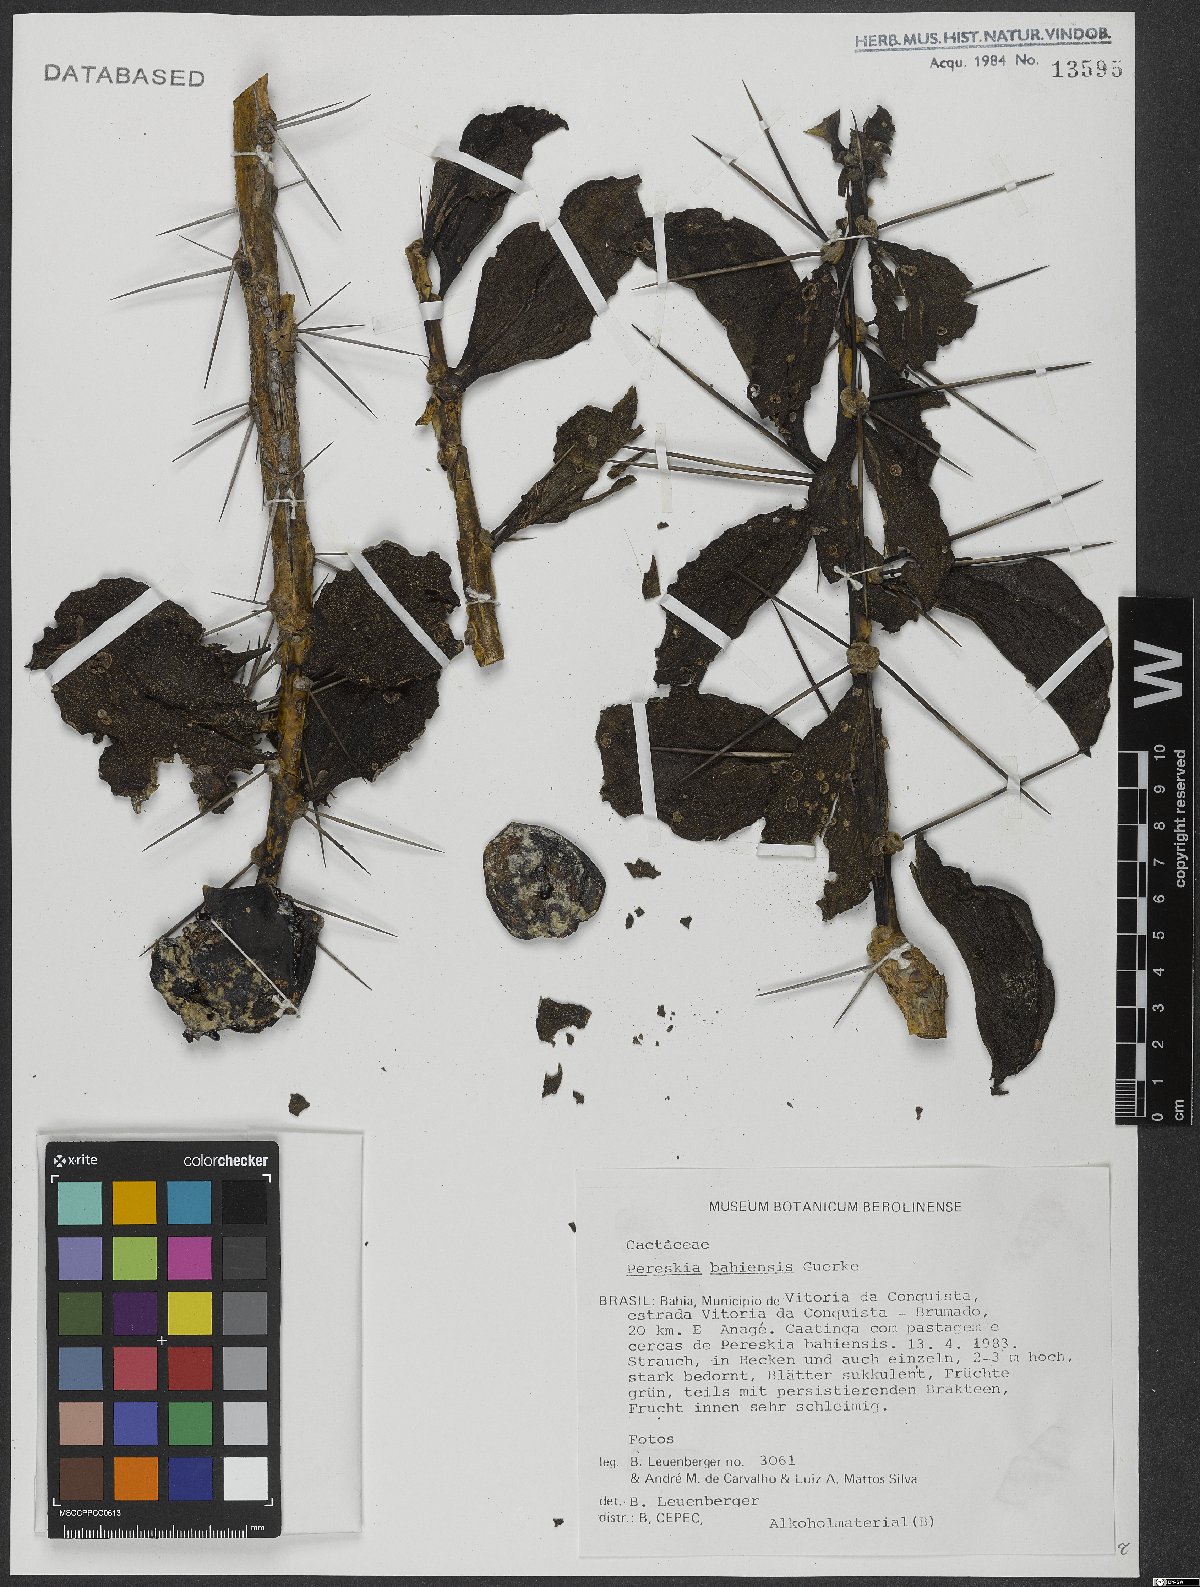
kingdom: Plantae
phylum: Tracheophyta
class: Magnoliopsida
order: Caryophyllales
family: Cactaceae
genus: Pereskia
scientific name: Pereskia bahiensis
